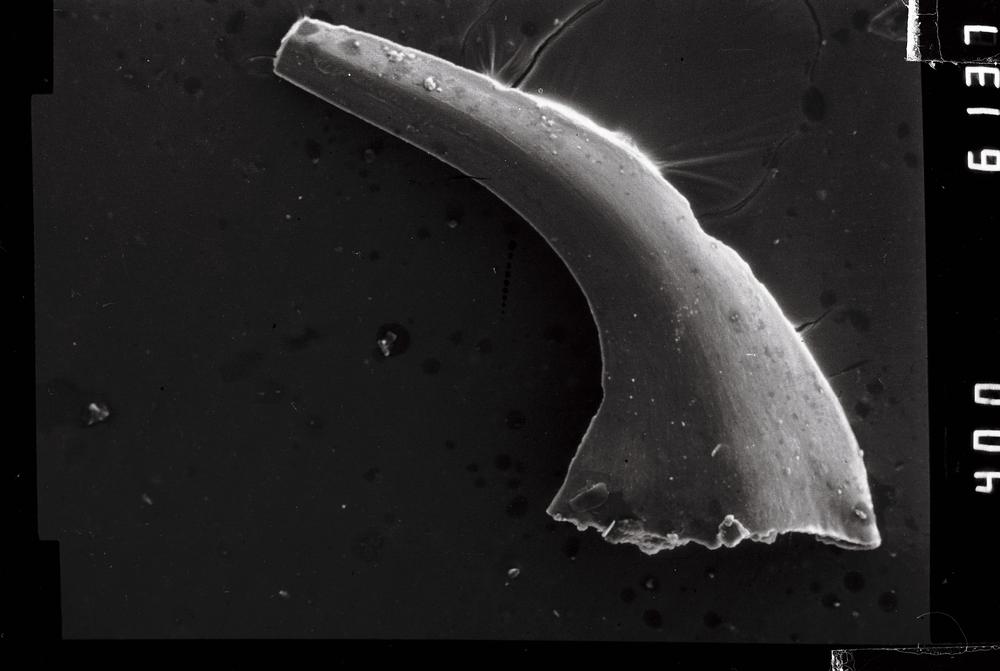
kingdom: Animalia
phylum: Chordata
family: Oistodontidae
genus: Rossodus
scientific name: Rossodus
